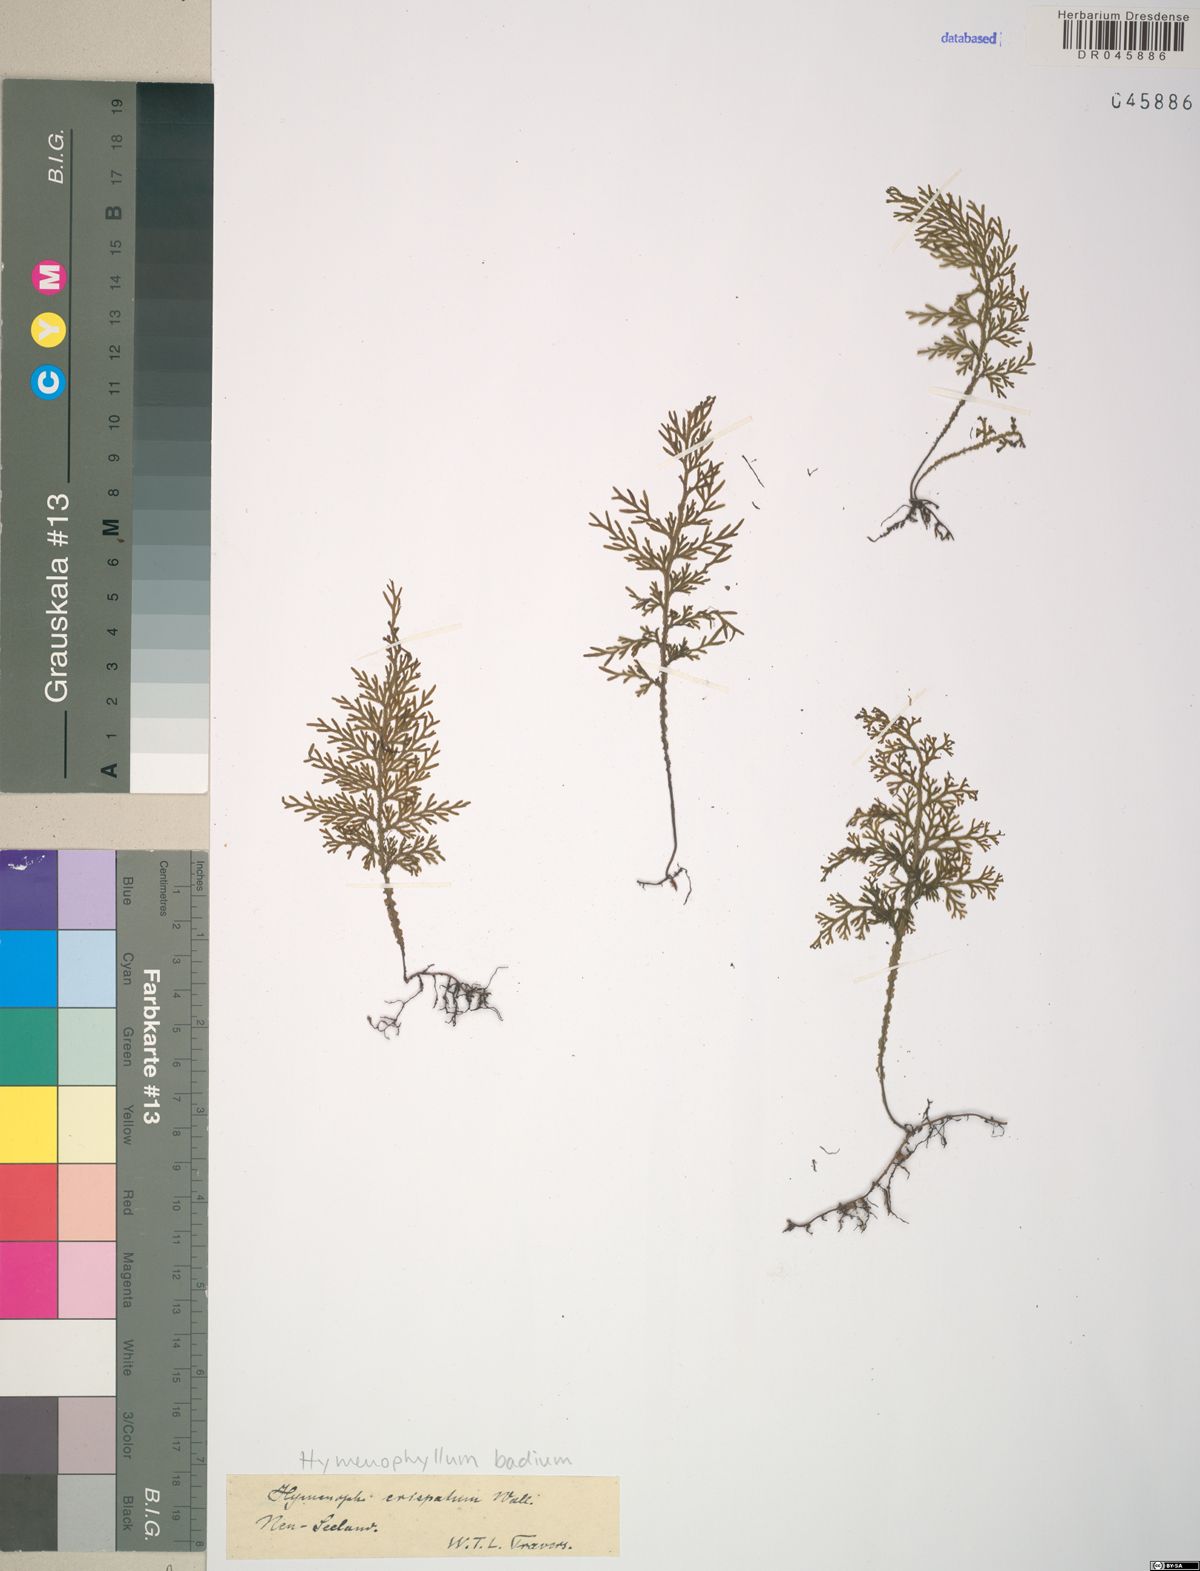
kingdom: Plantae
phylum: Tracheophyta
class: Polypodiopsida
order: Hymenophyllales
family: Hymenophyllaceae
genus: Hymenophyllum
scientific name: Hymenophyllum badium
